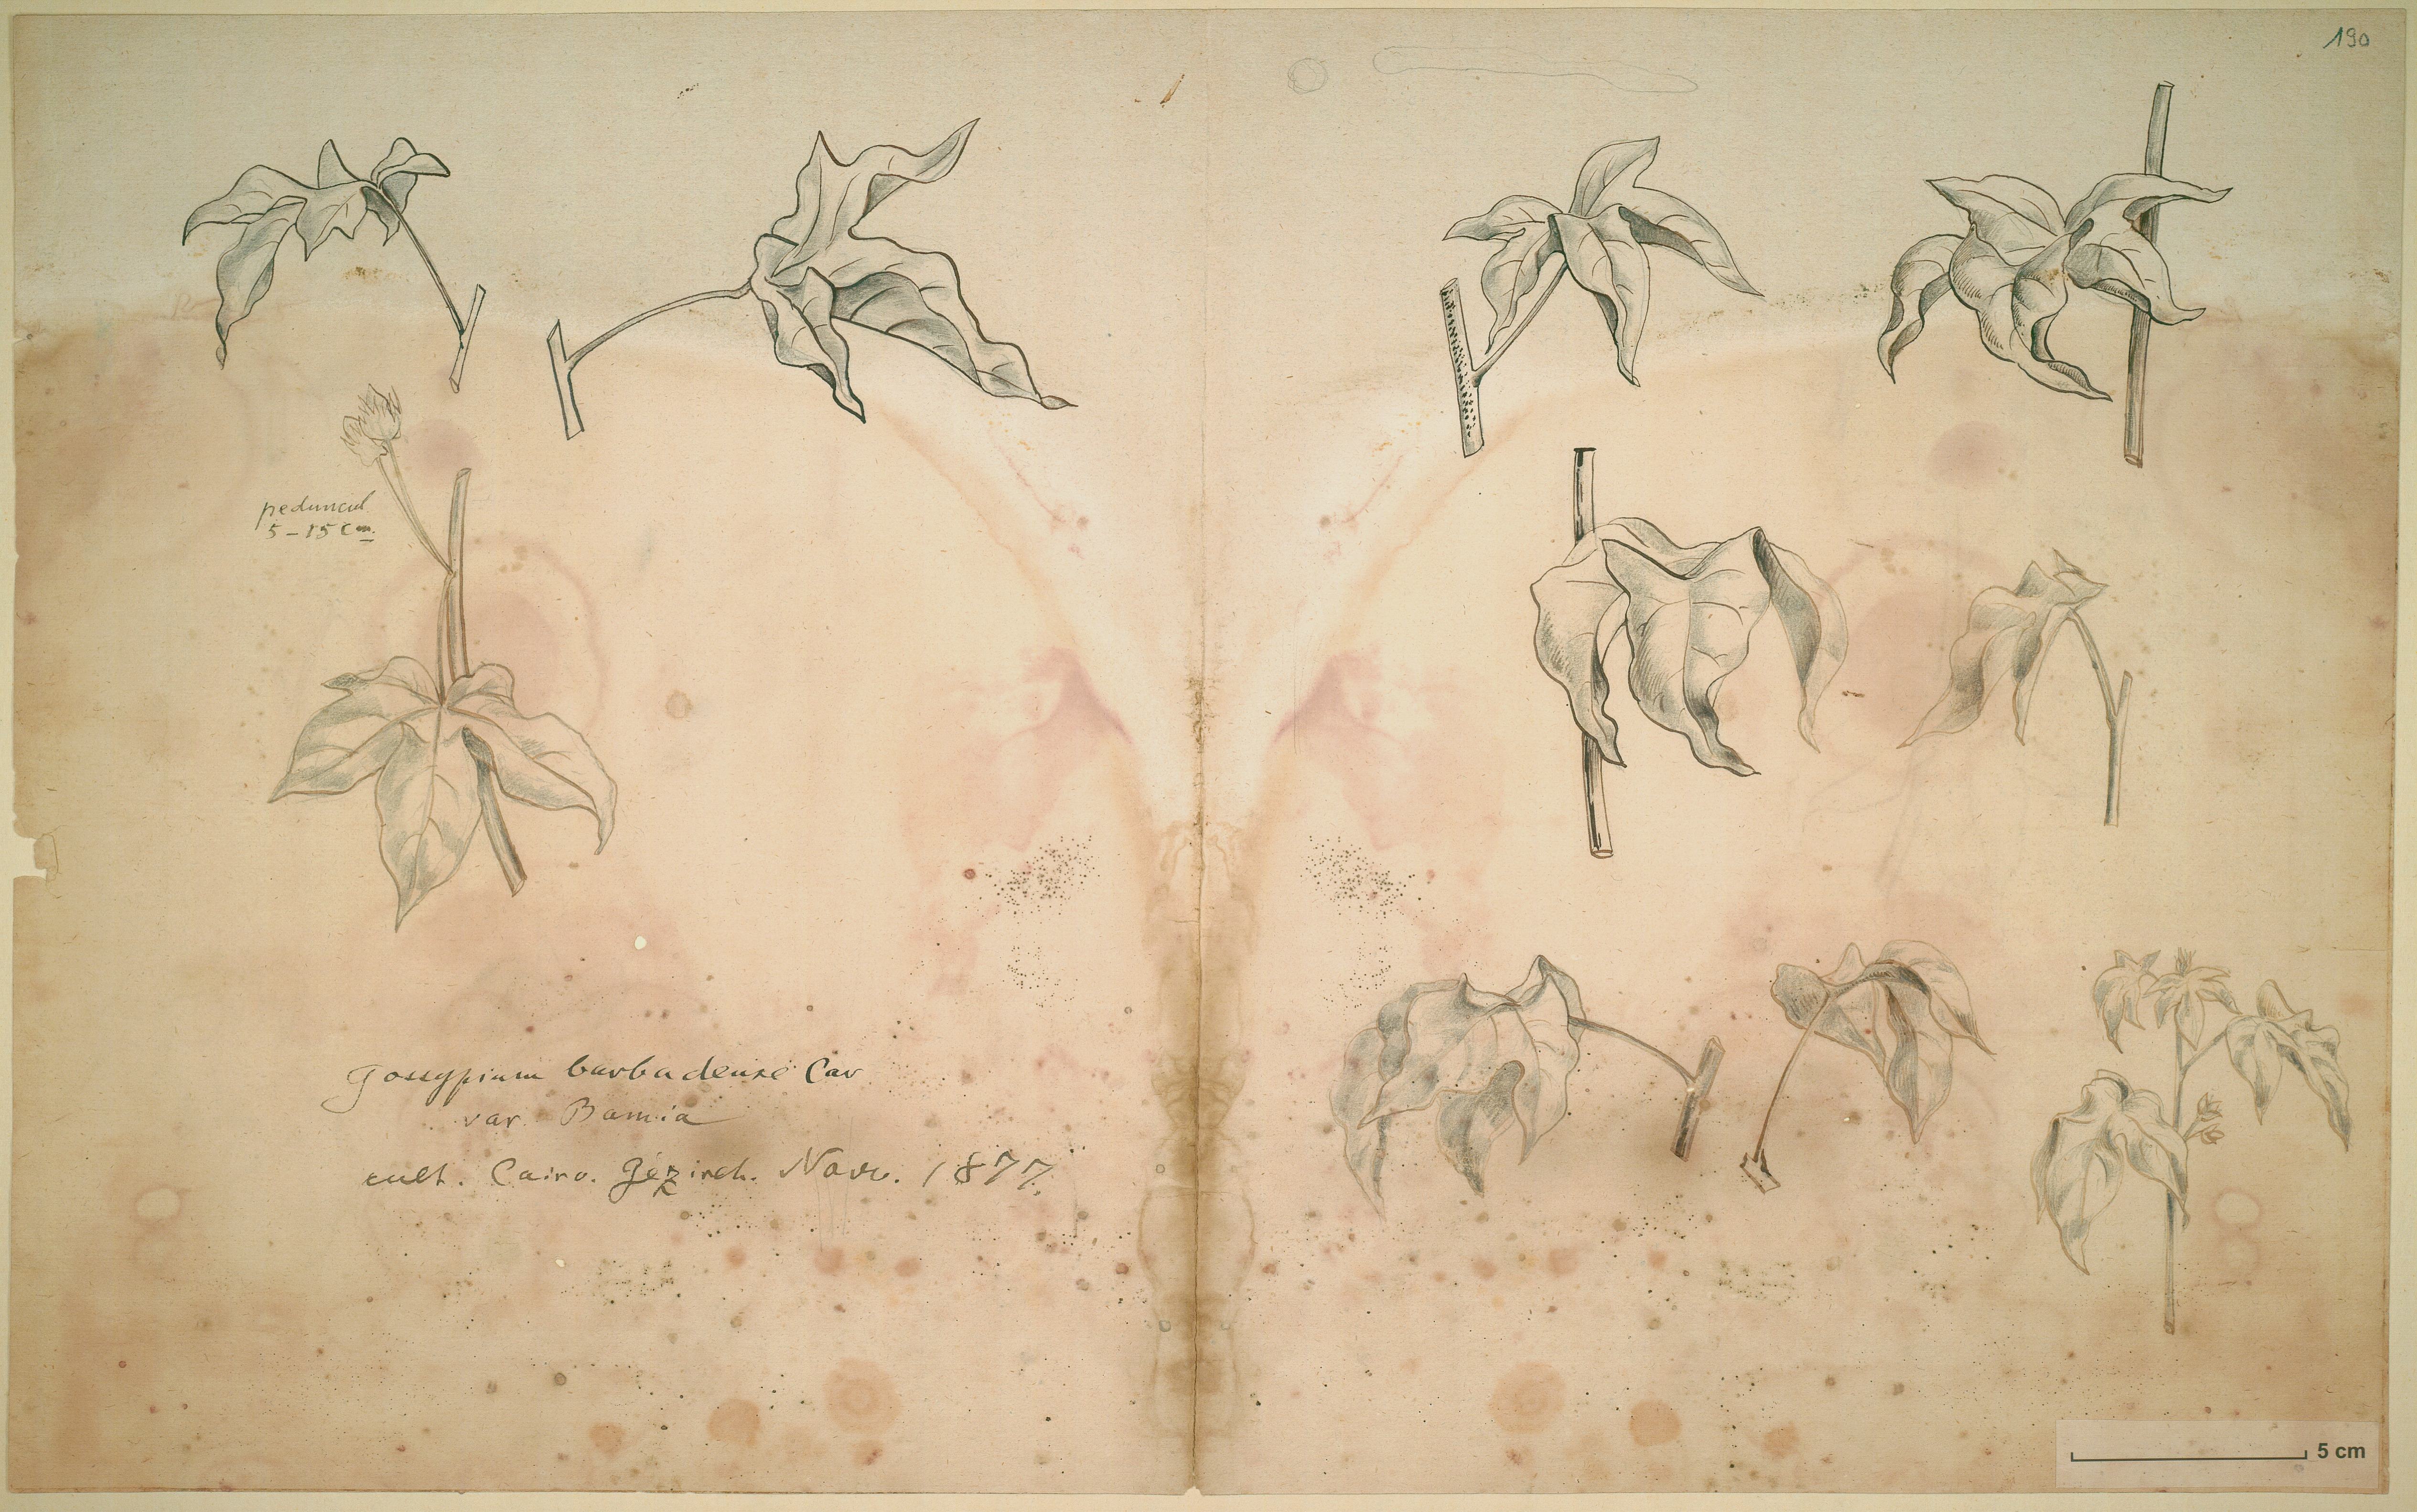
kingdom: Plantae
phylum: Tracheophyta
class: Magnoliopsida
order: Malvales
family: Malvaceae
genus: Gossypium
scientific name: Gossypium barbadense
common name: Creole cotton
